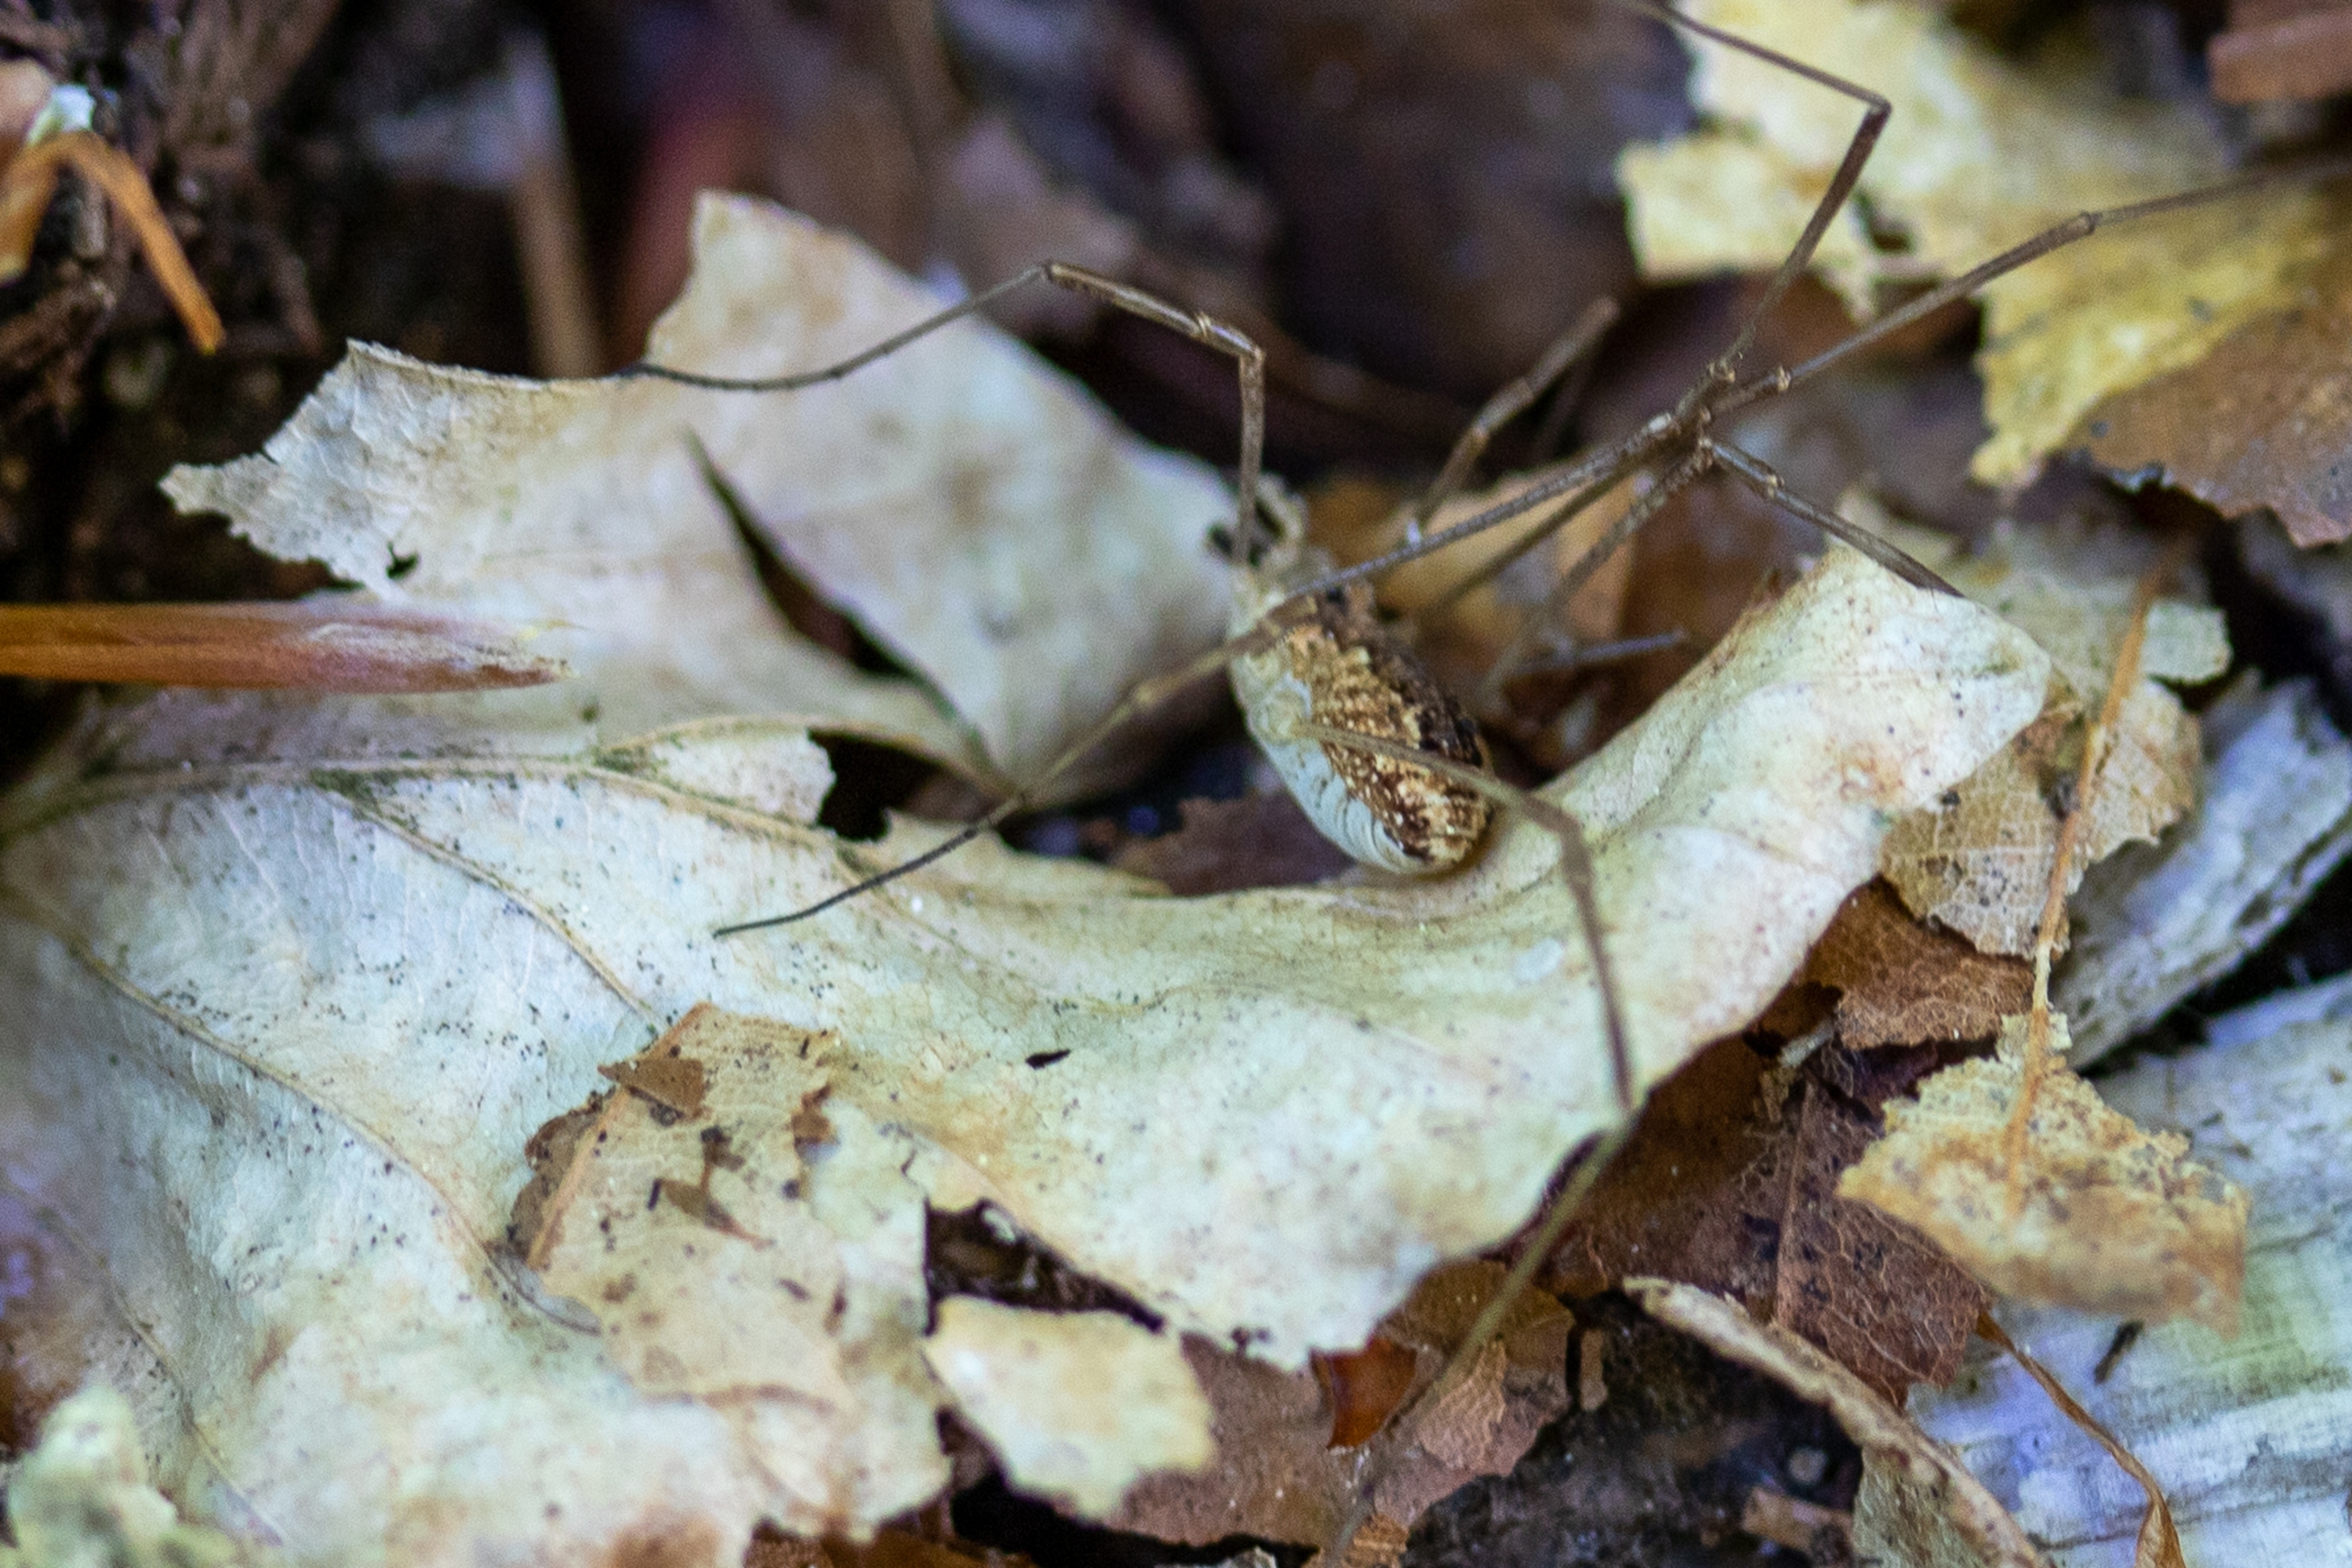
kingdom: Animalia
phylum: Arthropoda
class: Arachnida
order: Opiliones
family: Phalangiidae
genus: Rilaena
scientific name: Rilaena triangularis
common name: Forårsmejer
